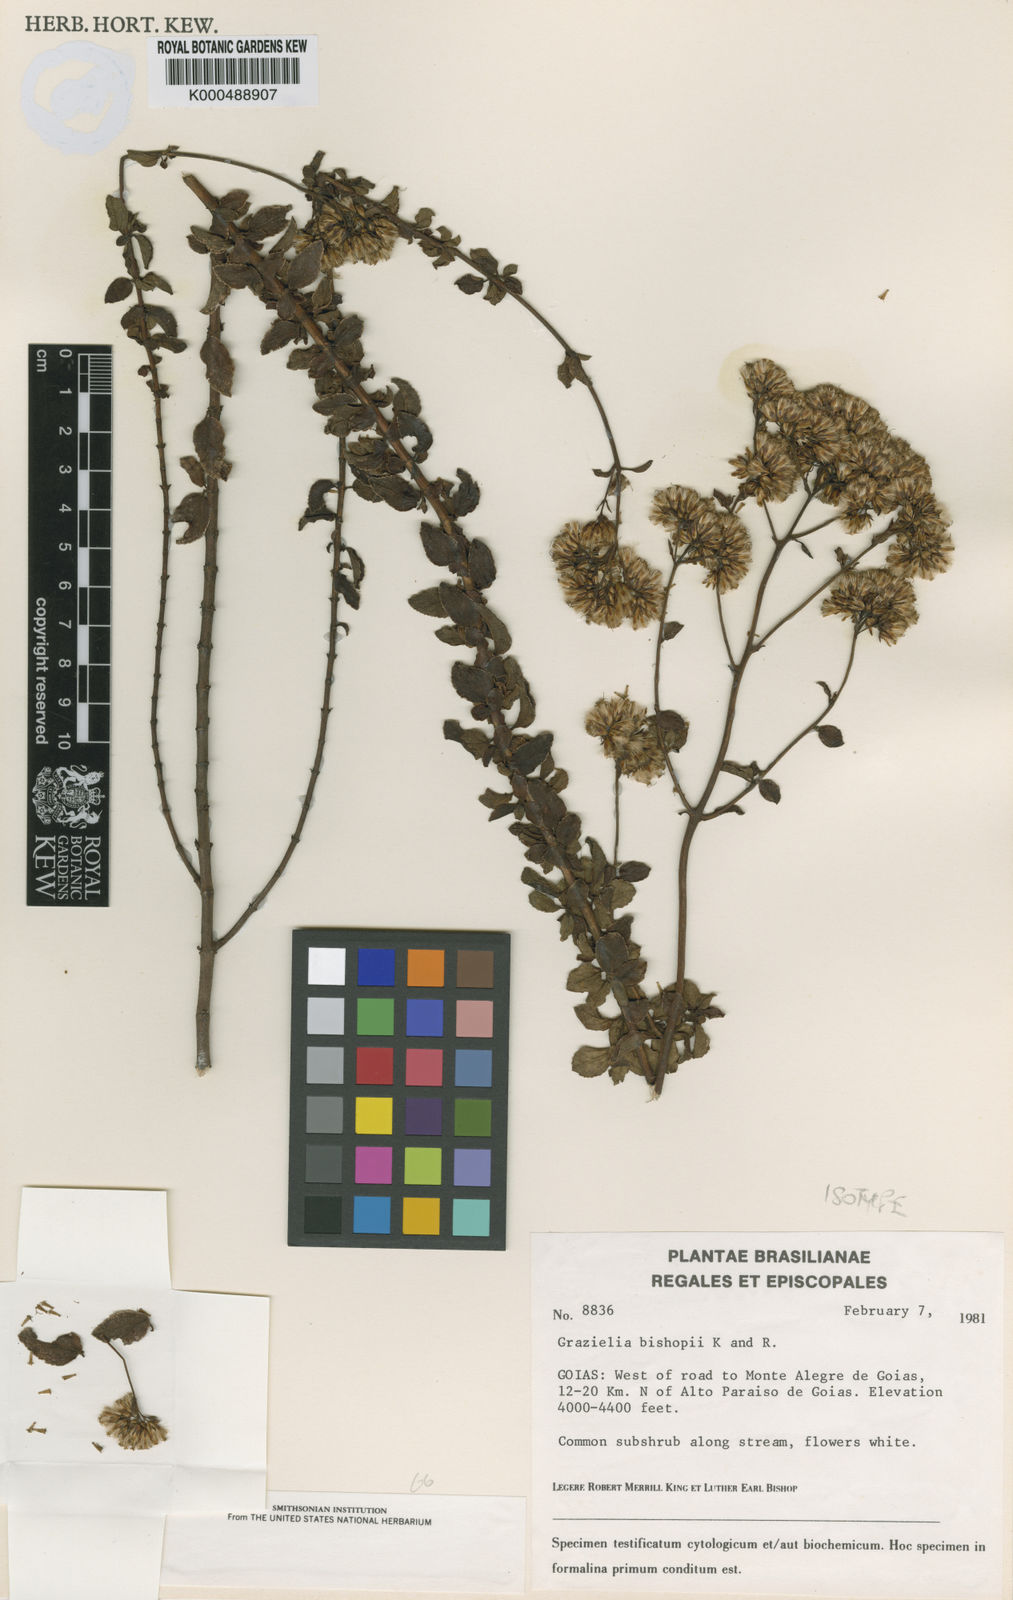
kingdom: Plantae
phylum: Tracheophyta
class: Magnoliopsida
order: Asterales
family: Asteraceae
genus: Grazielia
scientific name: Grazielia bishopii
